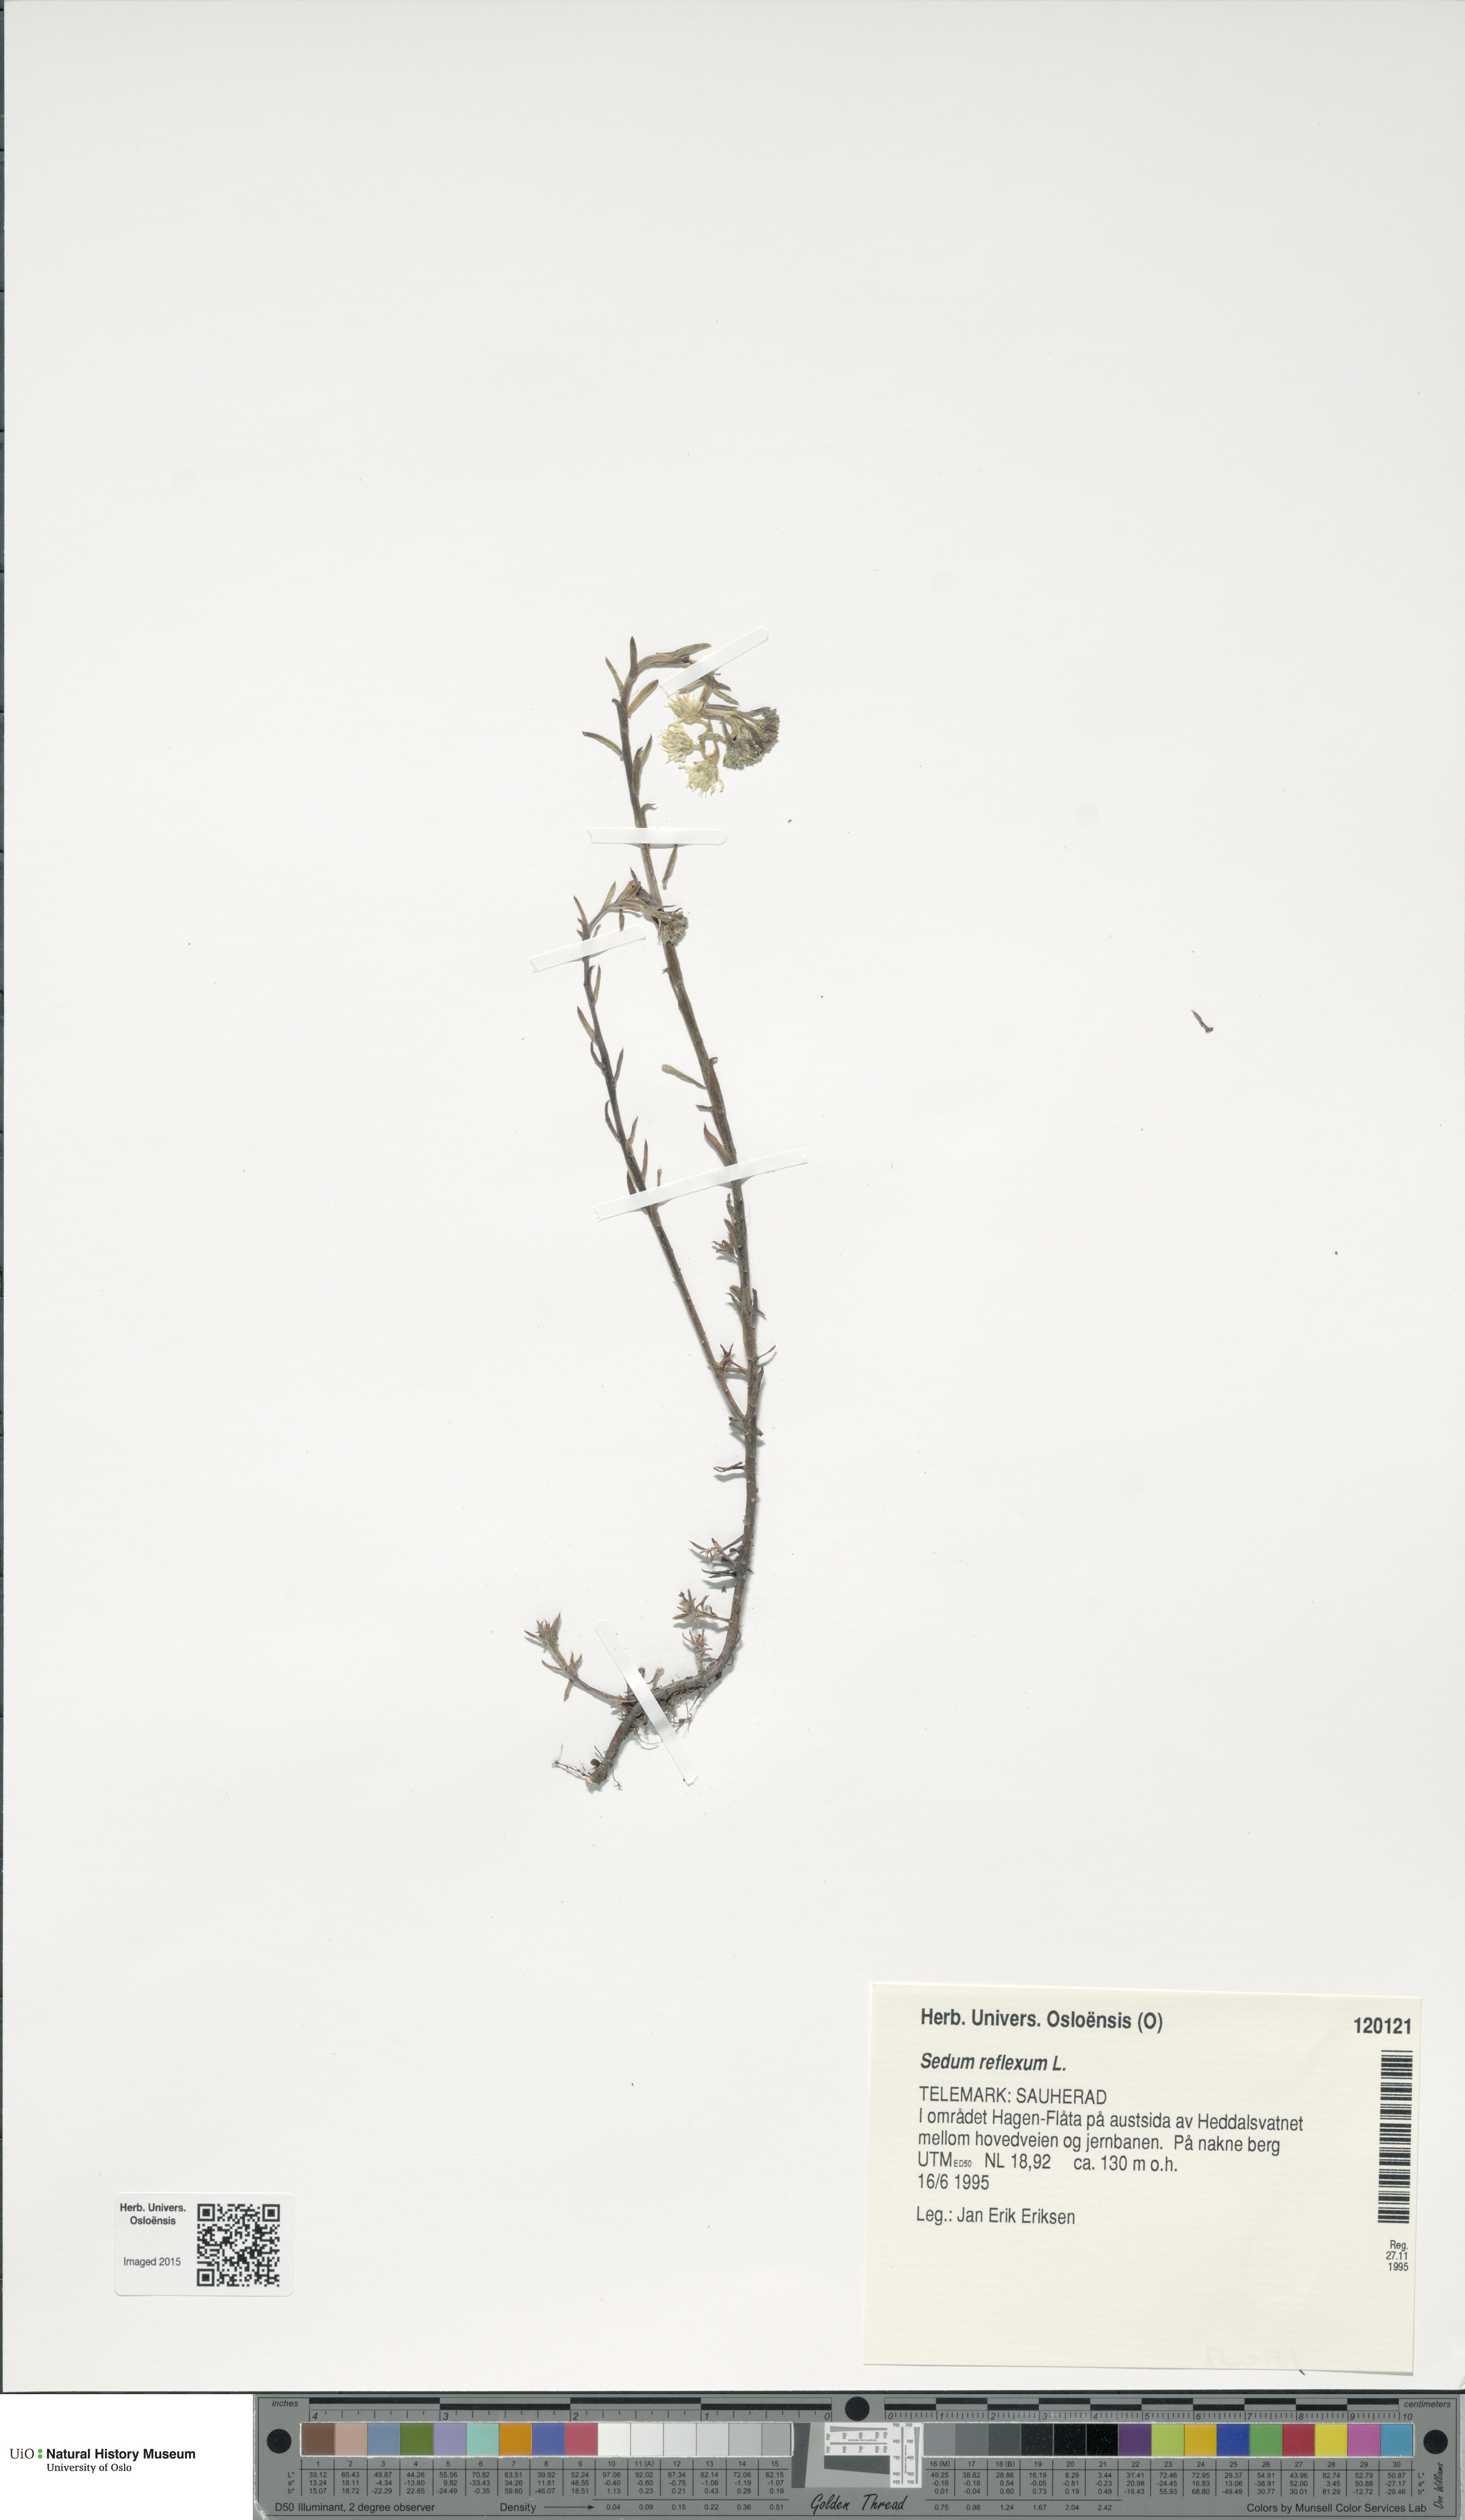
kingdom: Plantae
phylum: Tracheophyta
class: Magnoliopsida
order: Saxifragales
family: Crassulaceae
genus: Petrosedum
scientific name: Petrosedum rupestre
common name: Jenny's stonecrop
